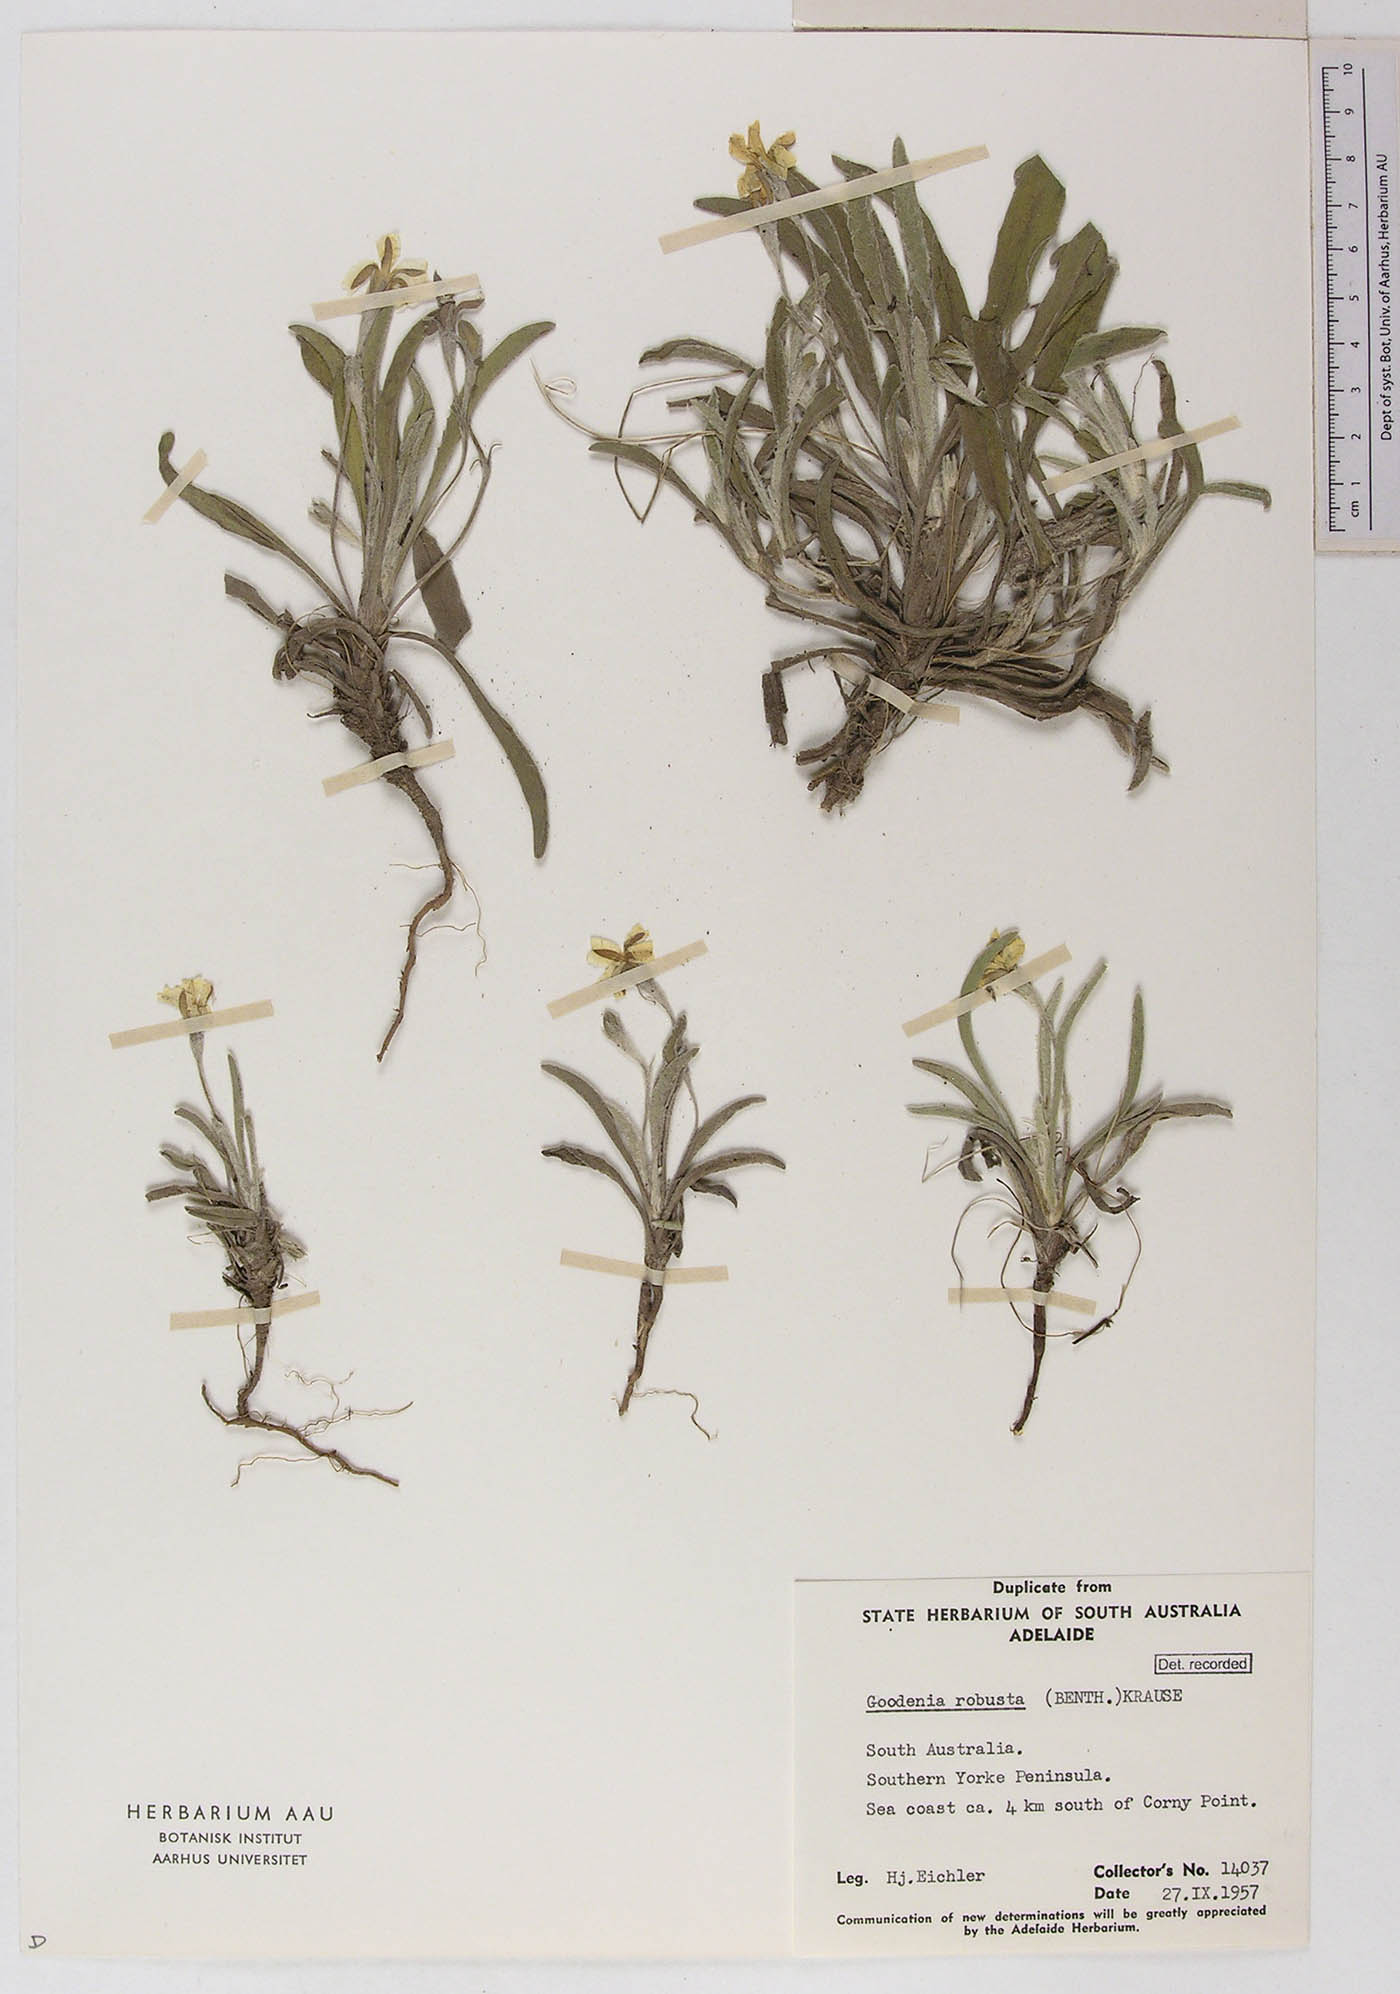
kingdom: Plantae
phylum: Tracheophyta
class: Magnoliopsida
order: Asterales
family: Goodeniaceae
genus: Goodenia
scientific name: Goodenia robusta
